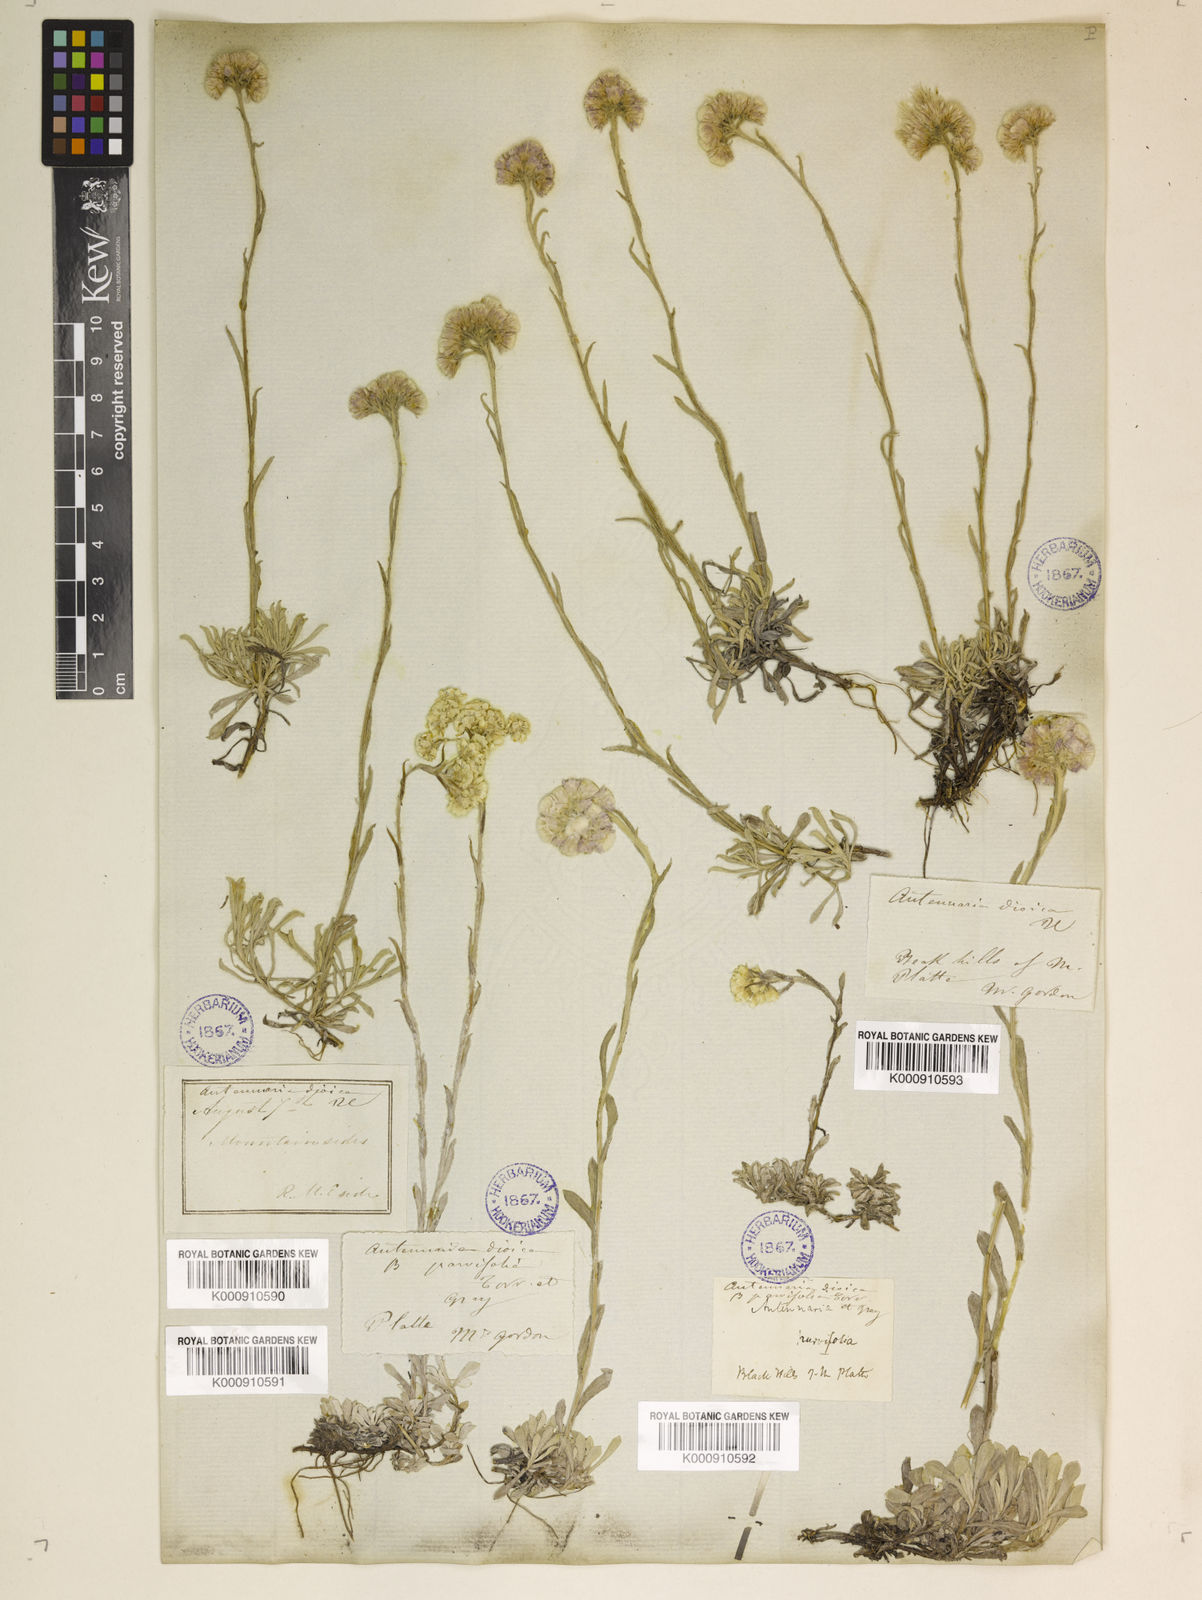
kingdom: Plantae
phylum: Tracheophyta
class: Magnoliopsida
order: Asterales
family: Asteraceae
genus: Antennaria
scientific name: Antennaria dioica
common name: Mountain everlasting
